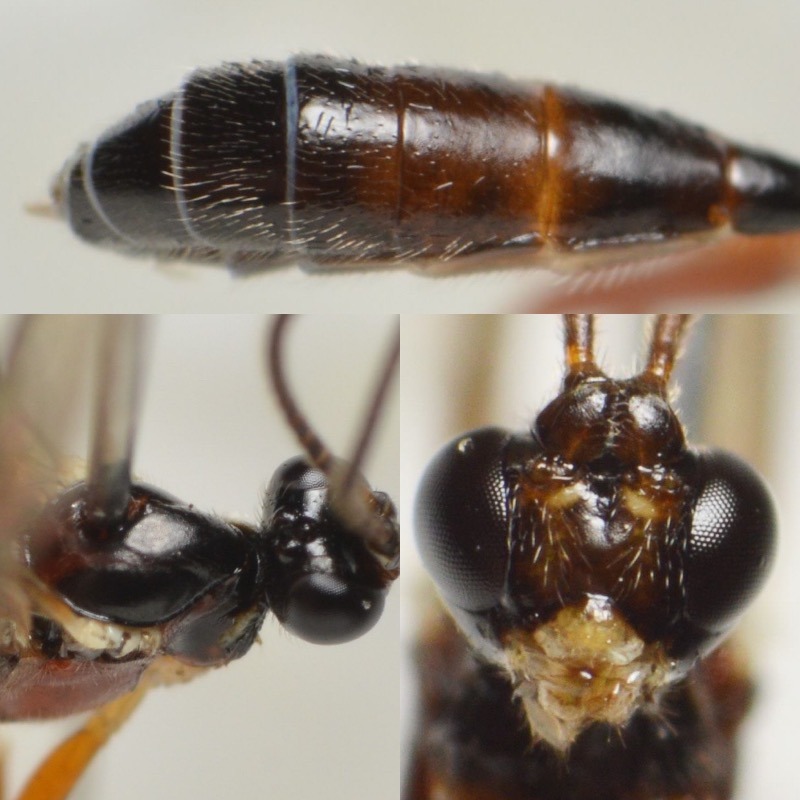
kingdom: Animalia
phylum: Arthropoda
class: Insecta
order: Hymenoptera
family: Ichneumonidae
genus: Megastylus
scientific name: Megastylus cruentator
